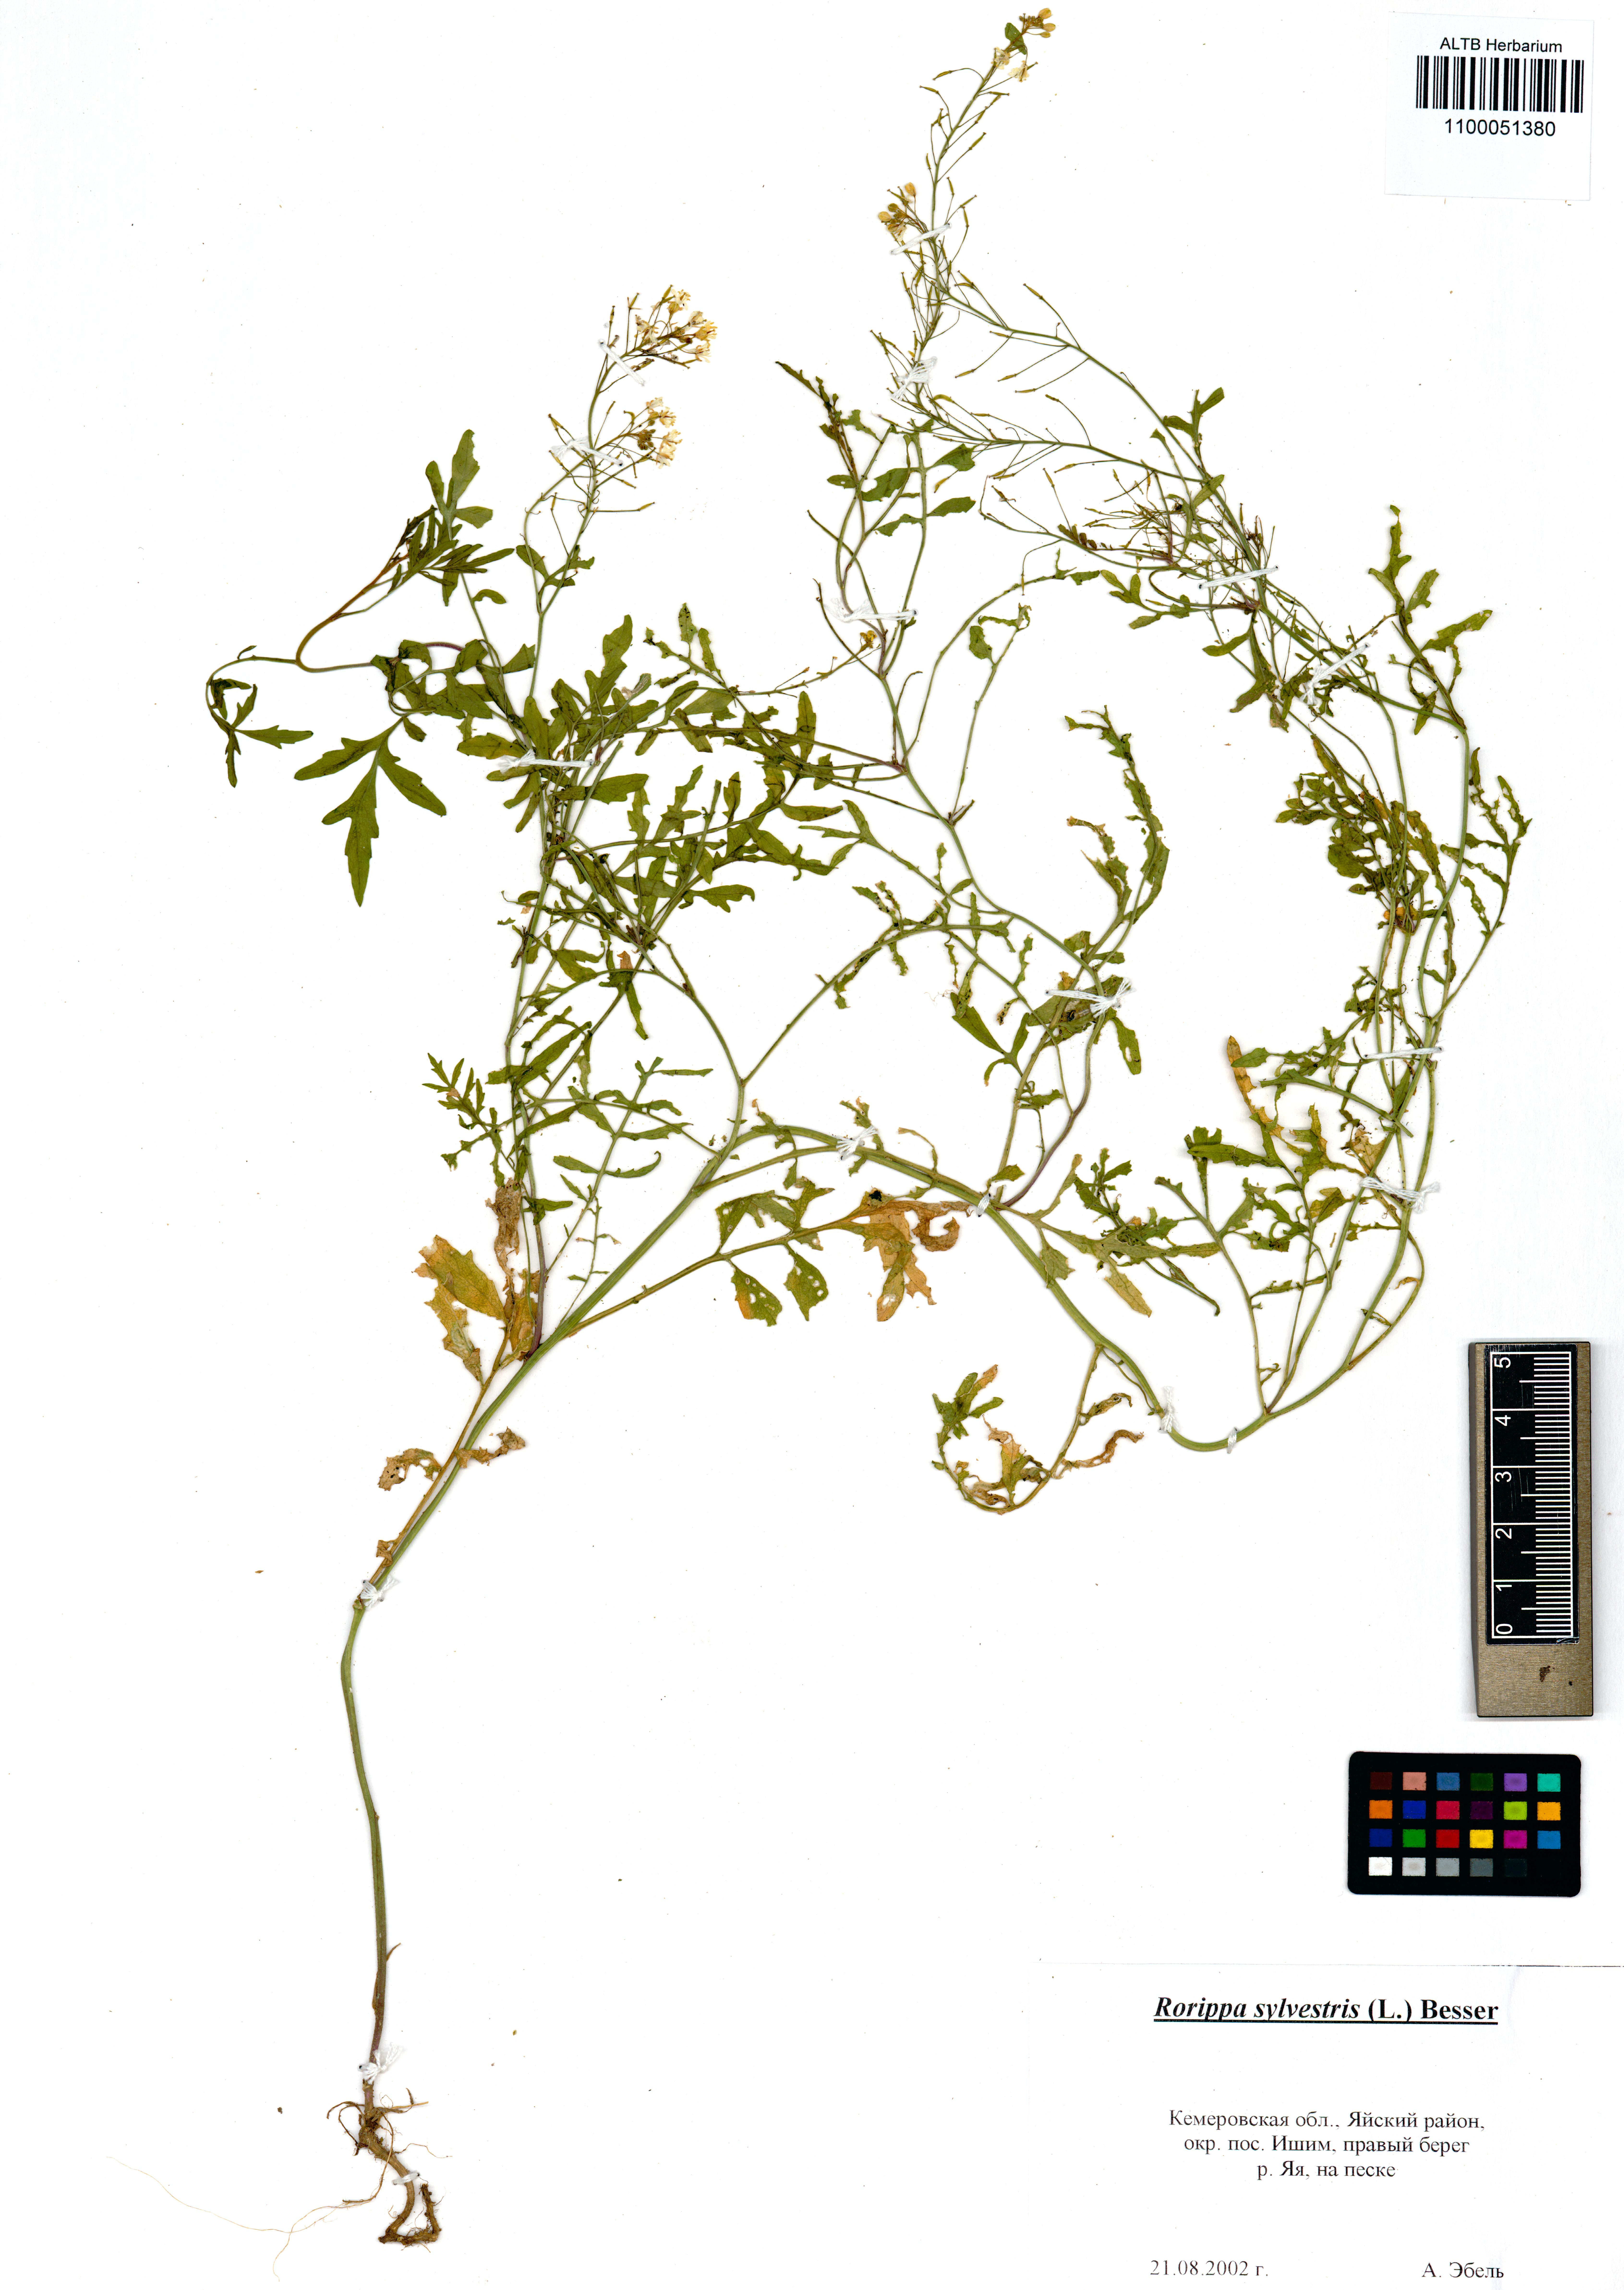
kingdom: Plantae
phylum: Tracheophyta
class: Magnoliopsida
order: Brassicales
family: Brassicaceae
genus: Rorippa
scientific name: Rorippa sylvestris
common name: Creeping yellowcress
